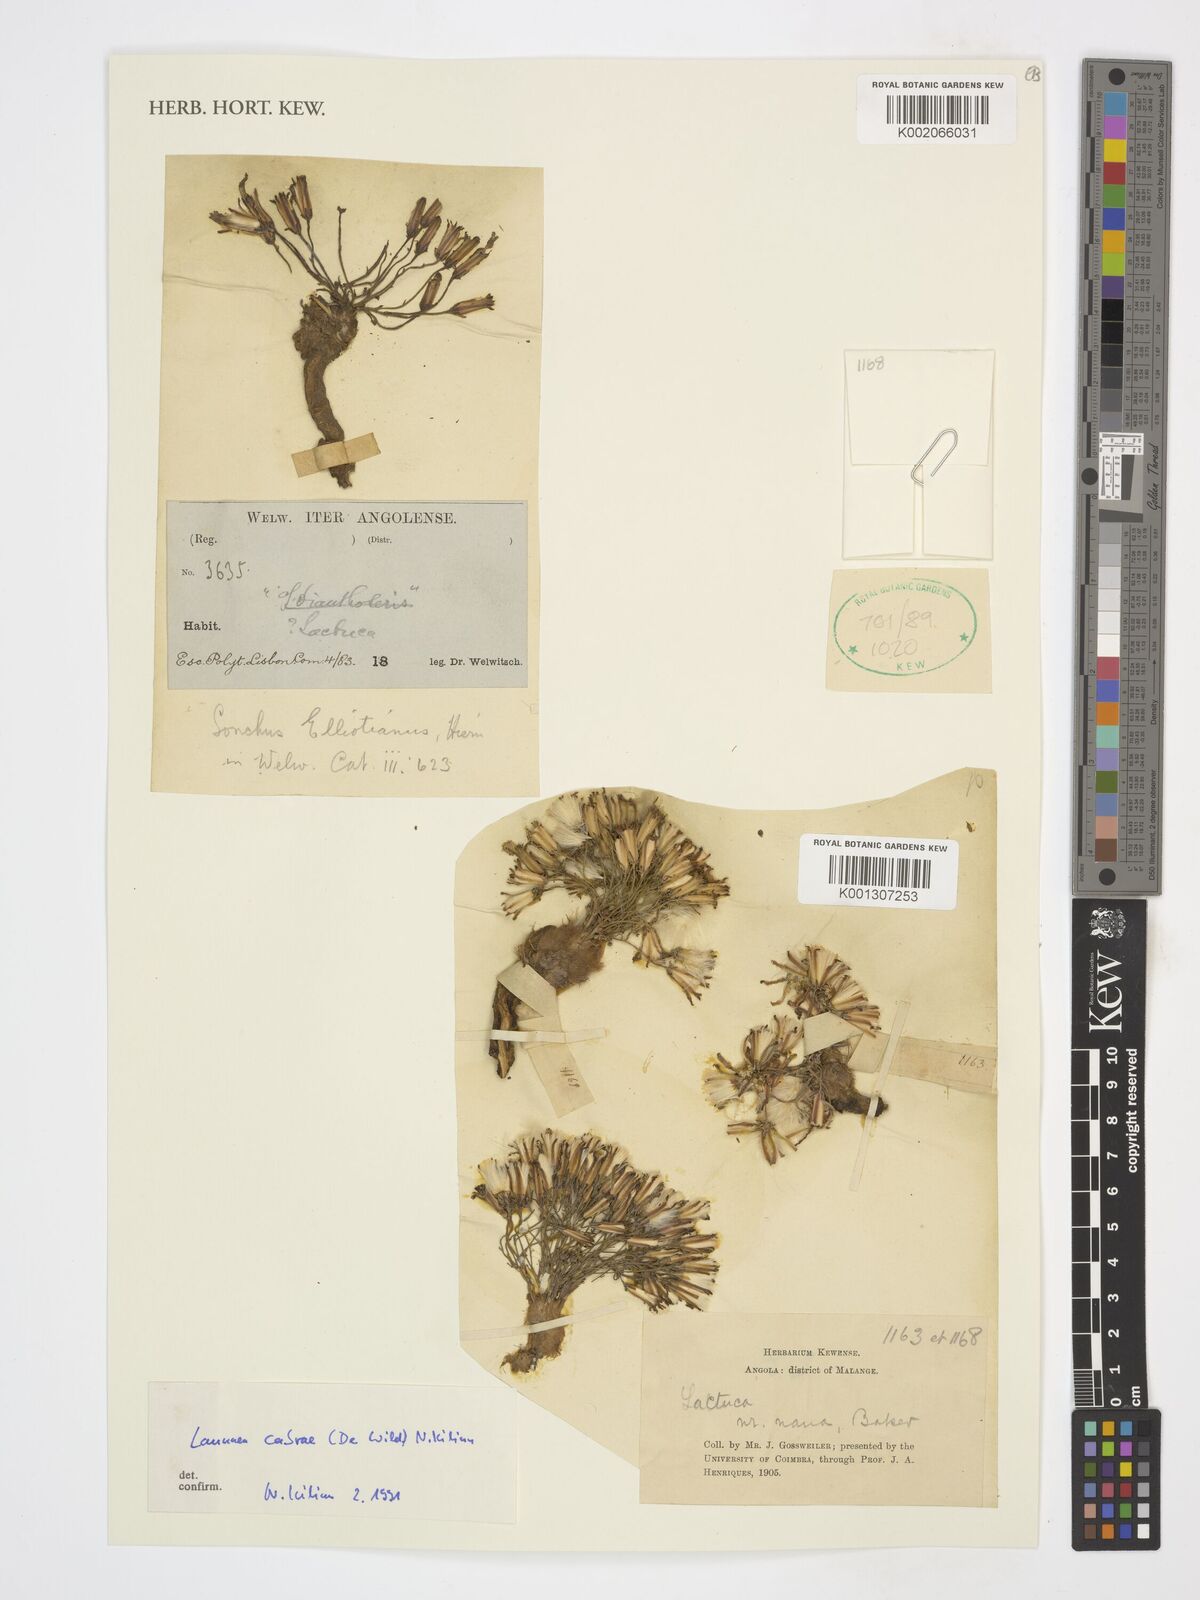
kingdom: Plantae
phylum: Tracheophyta
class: Magnoliopsida
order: Asterales
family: Asteraceae
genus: Launaea
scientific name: Launaea nana
